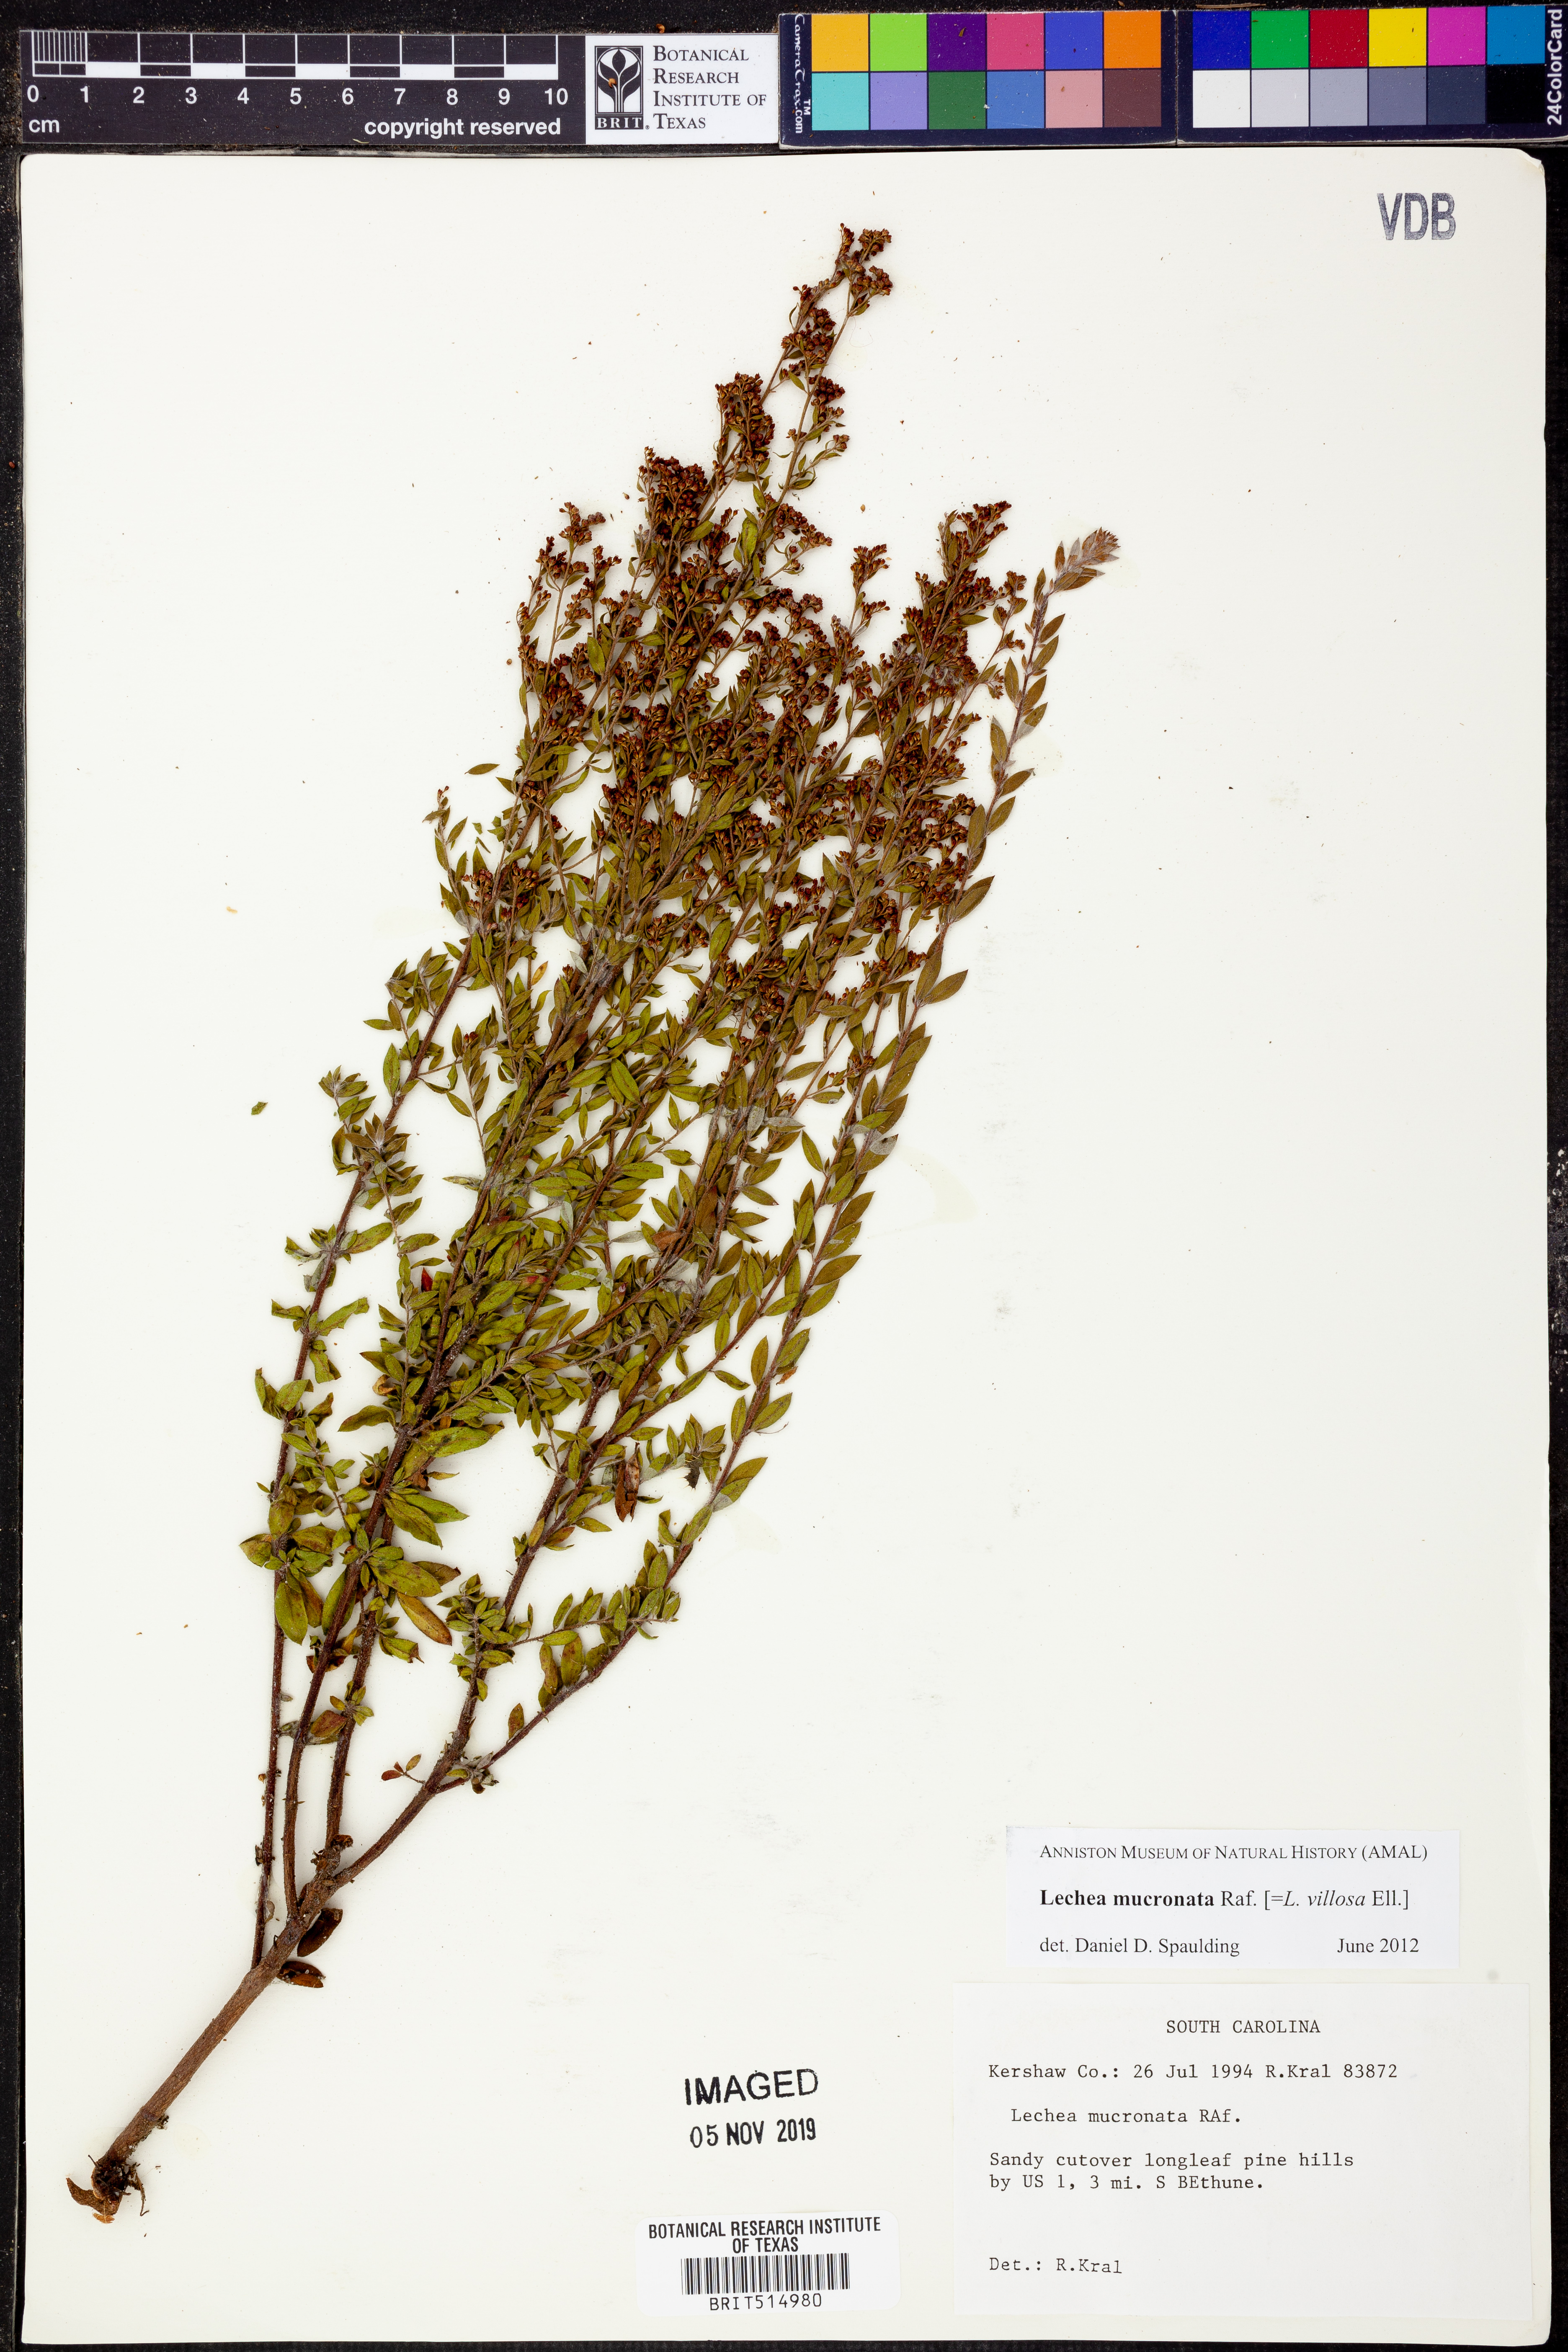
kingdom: Plantae
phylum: Tracheophyta
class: Magnoliopsida
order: Malvales
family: Cistaceae
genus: Lechea
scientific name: Lechea mucronata
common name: Hairy pinweed
